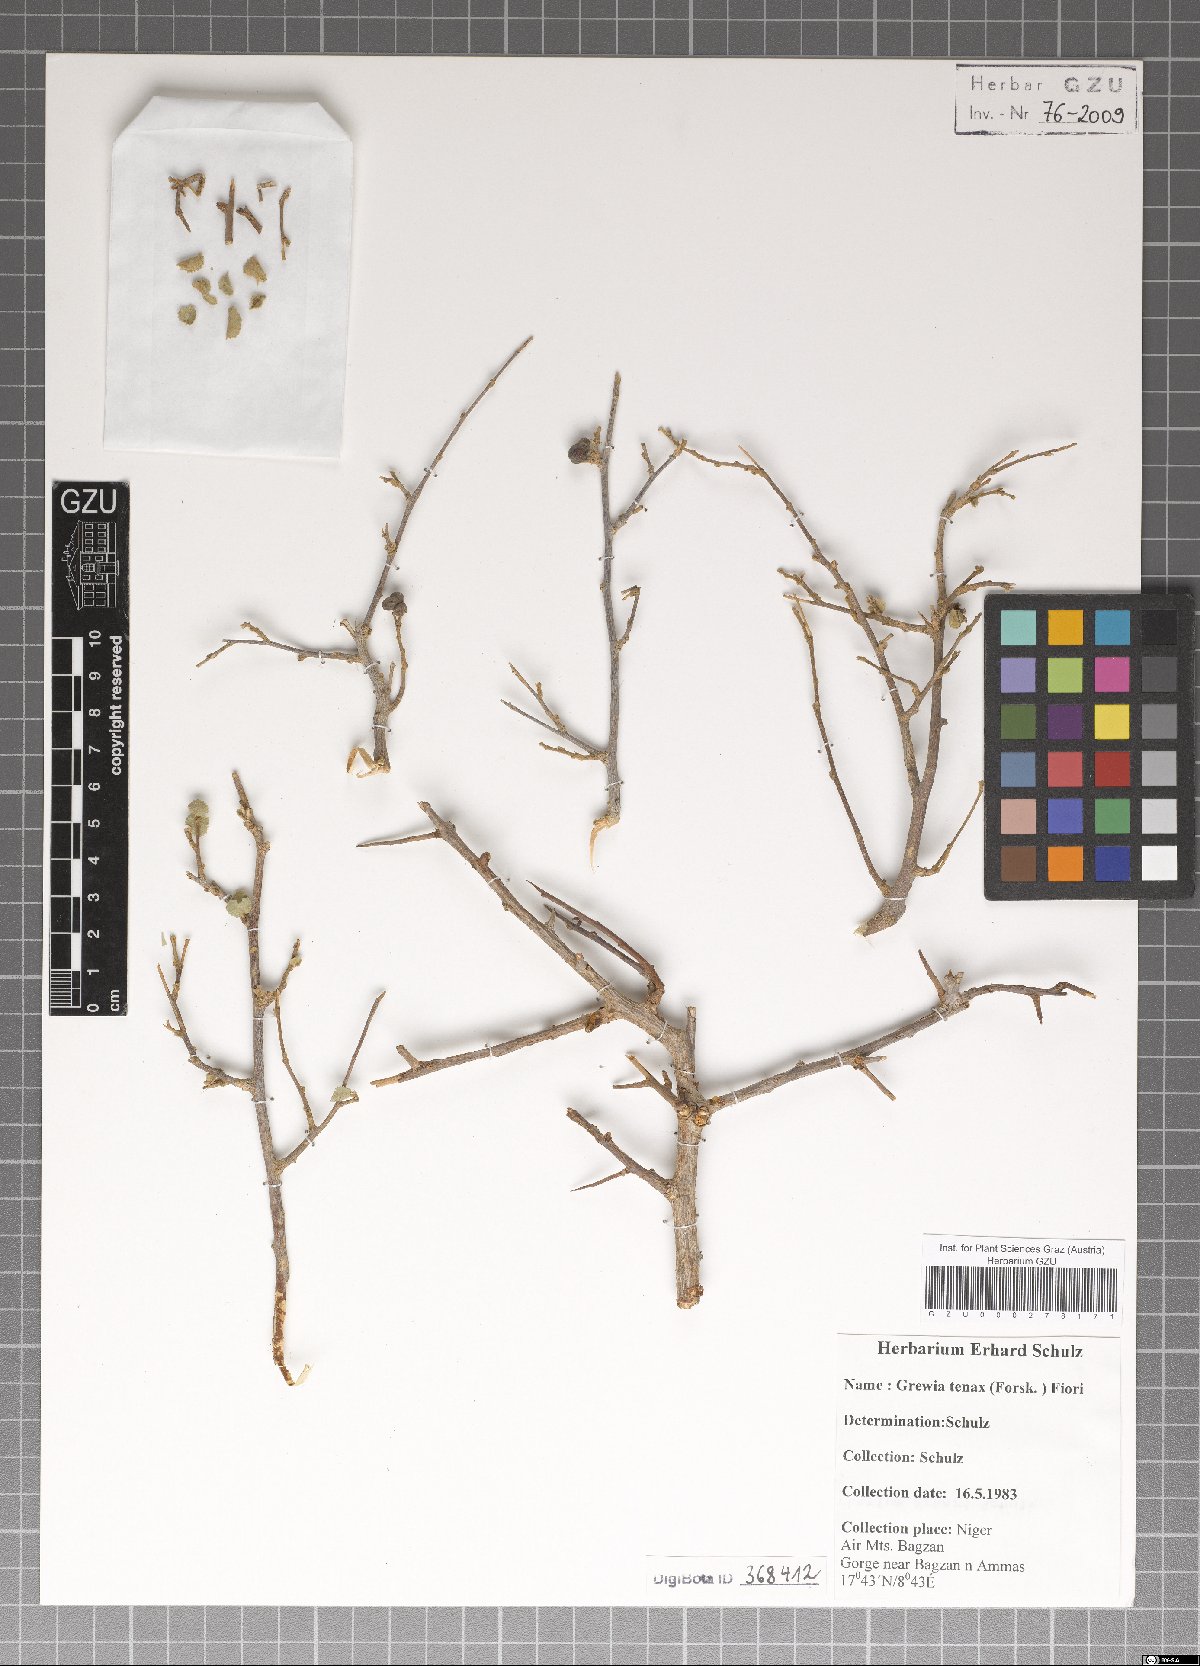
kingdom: Plantae
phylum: Tracheophyta
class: Magnoliopsida
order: Malvales
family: Malvaceae
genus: Grewia
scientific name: Grewia tenax
